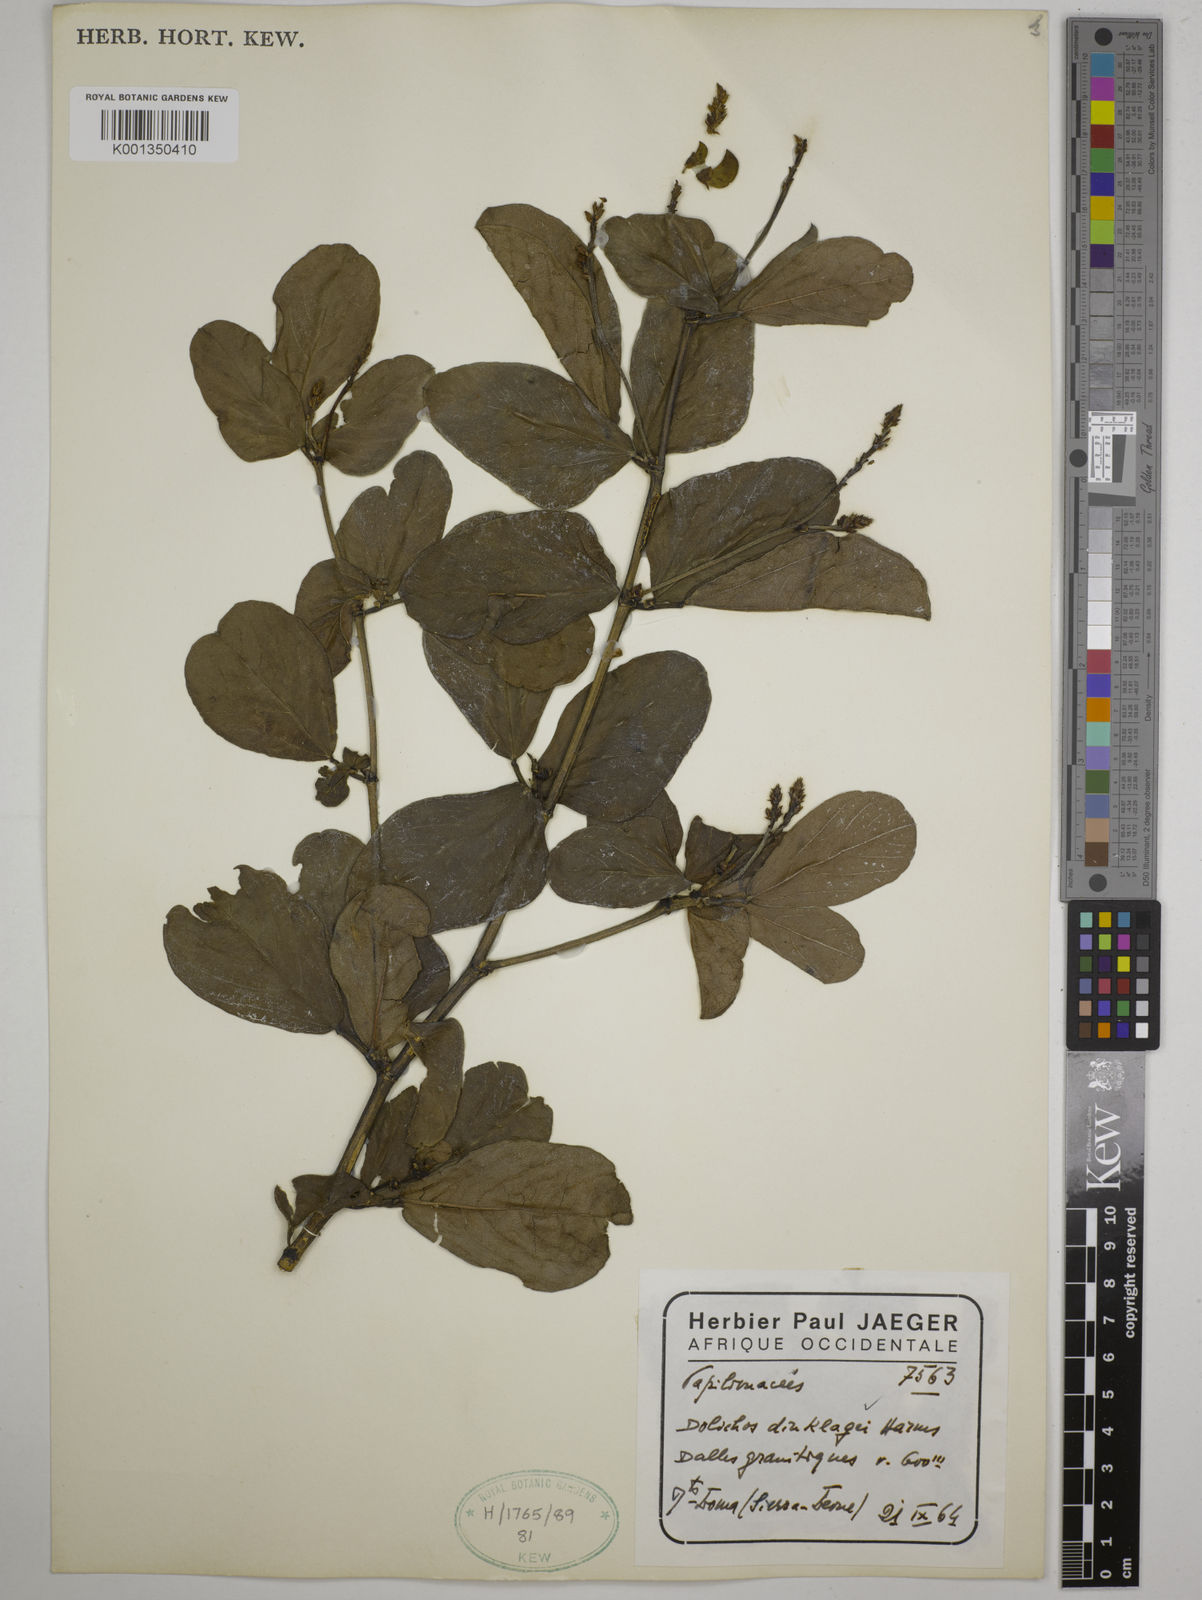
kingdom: Plantae
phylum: Tracheophyta
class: Magnoliopsida
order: Fabales
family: Fabaceae
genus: Dolichos
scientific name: Dolichos dinklagei
